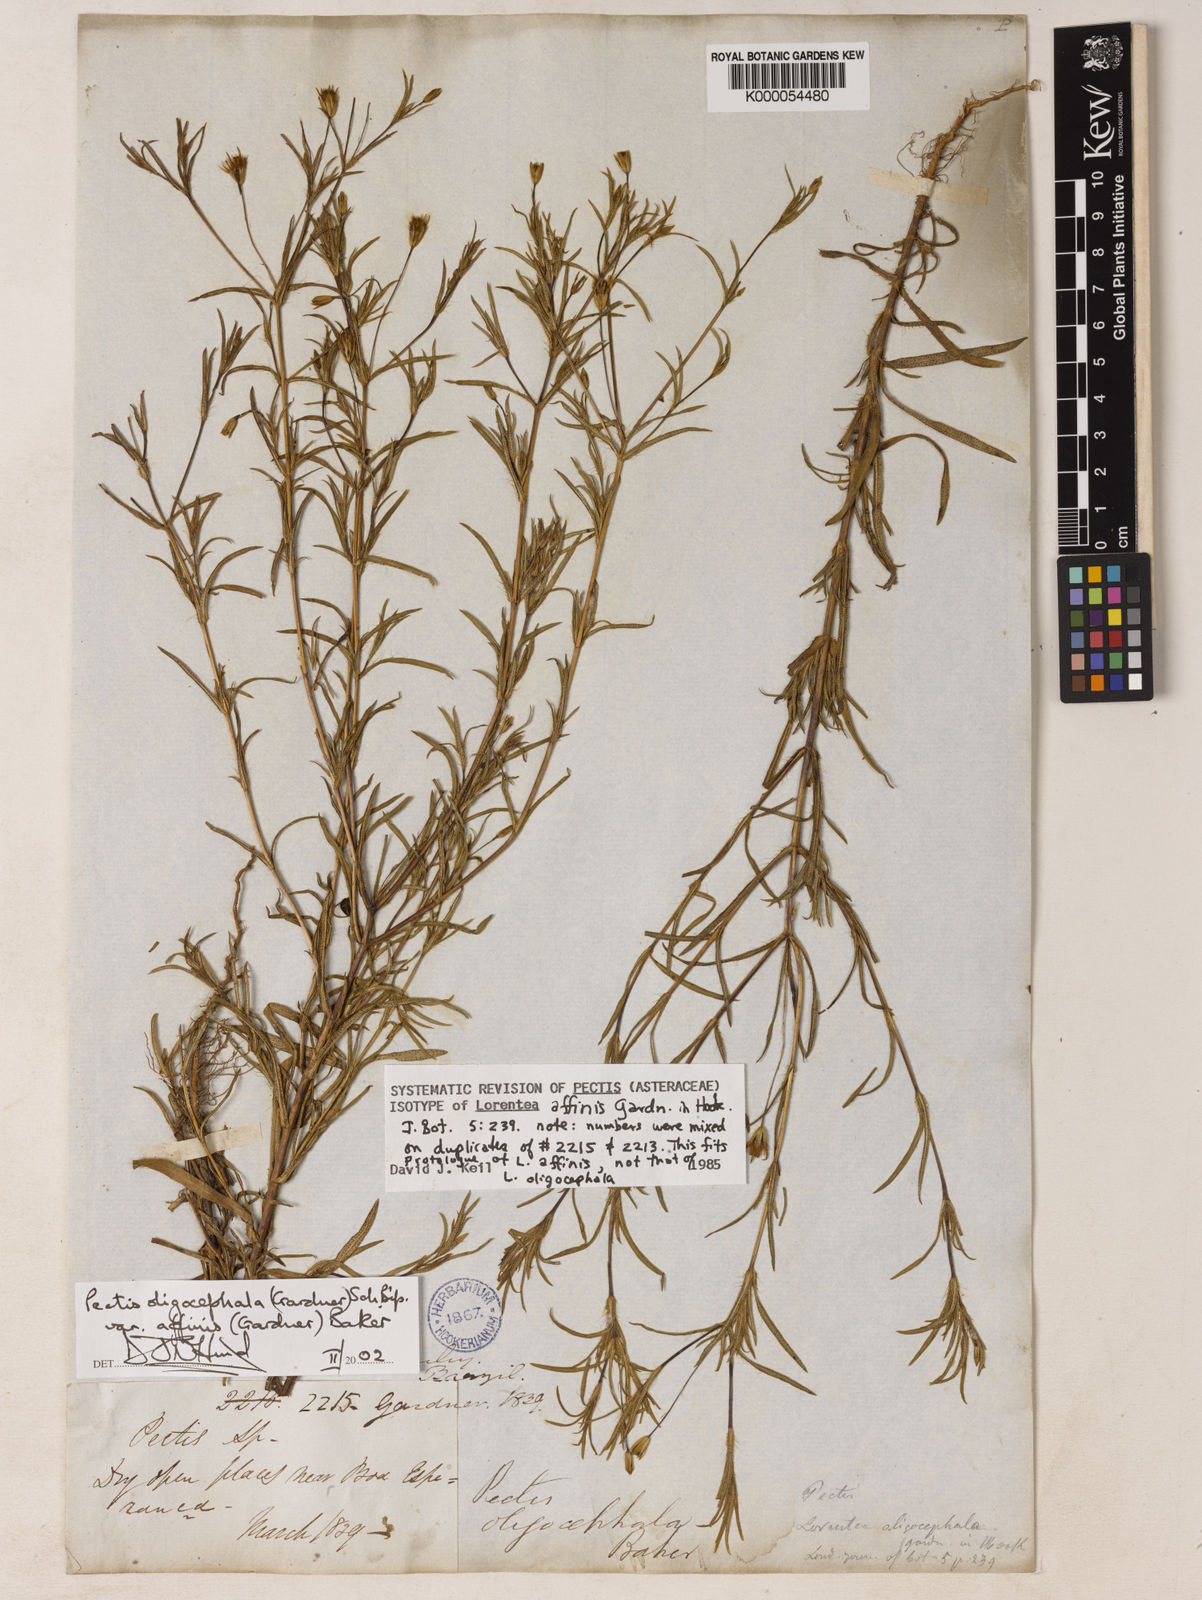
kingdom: Plantae
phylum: Tracheophyta
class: Magnoliopsida
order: Asterales
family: Asteraceae
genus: Pectis
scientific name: Pectis oligocephala
